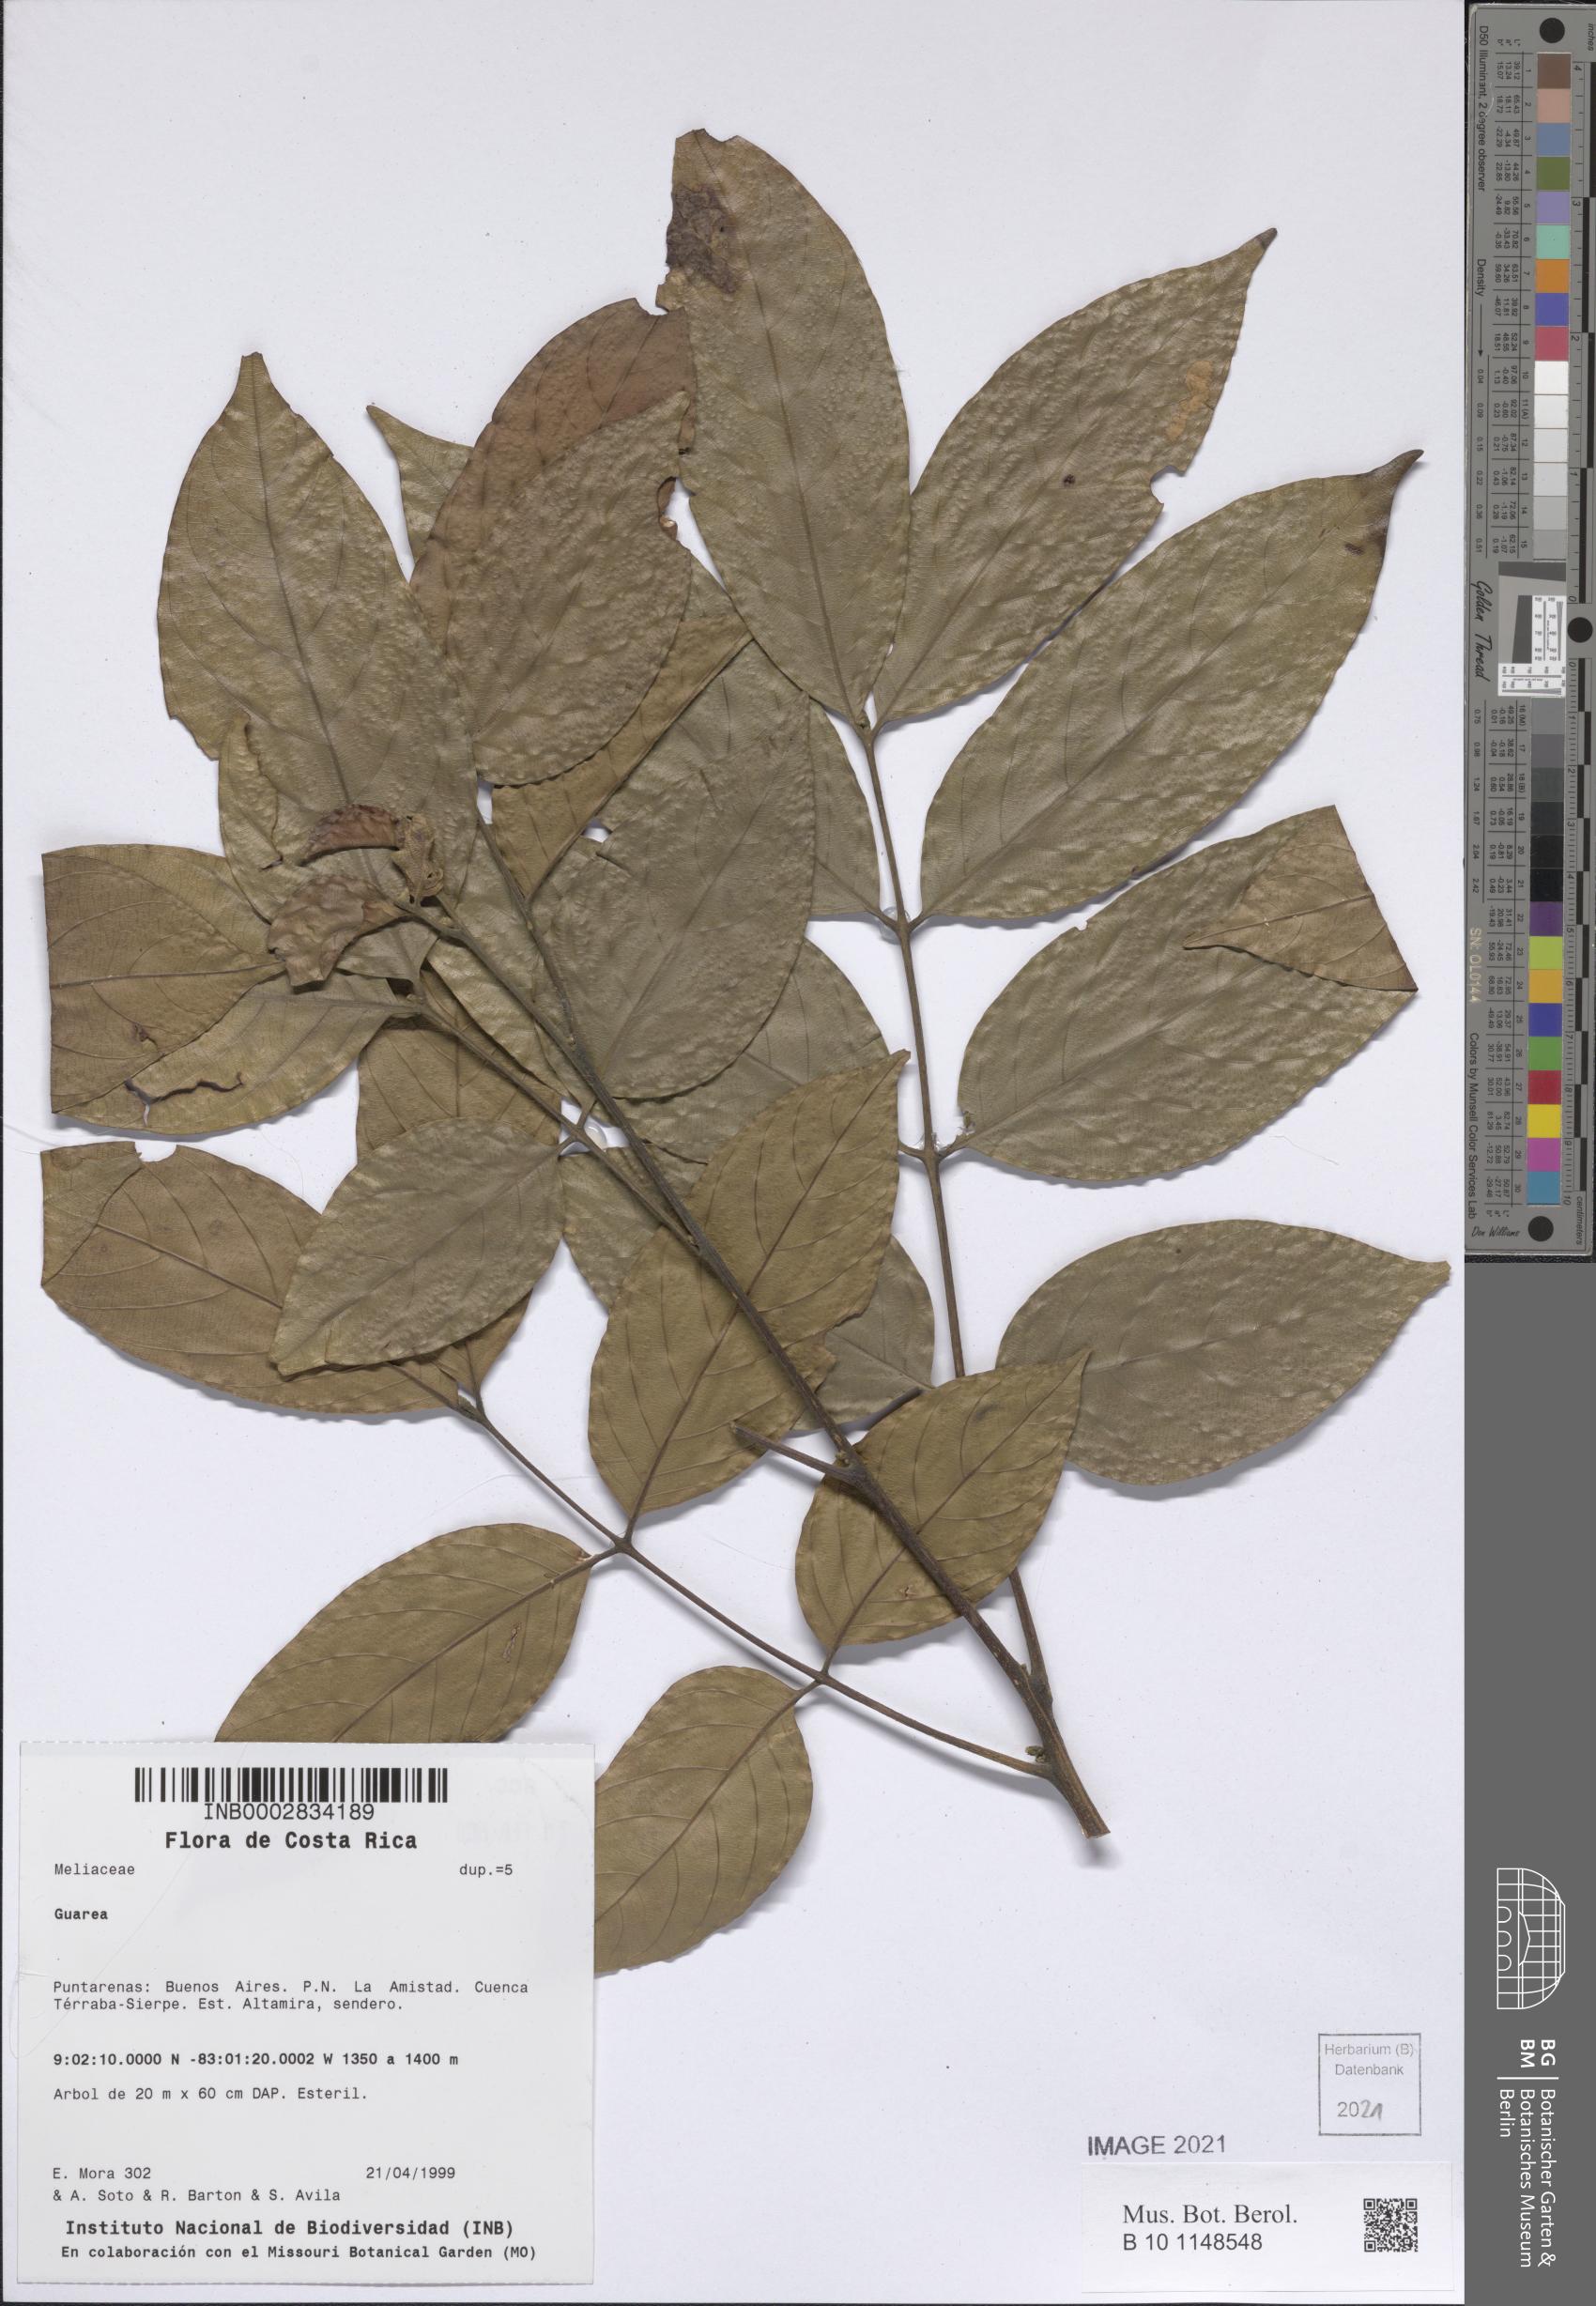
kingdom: Plantae
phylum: Tracheophyta
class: Magnoliopsida
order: Sapindales
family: Meliaceae
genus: Guarea
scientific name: Guarea glabra
